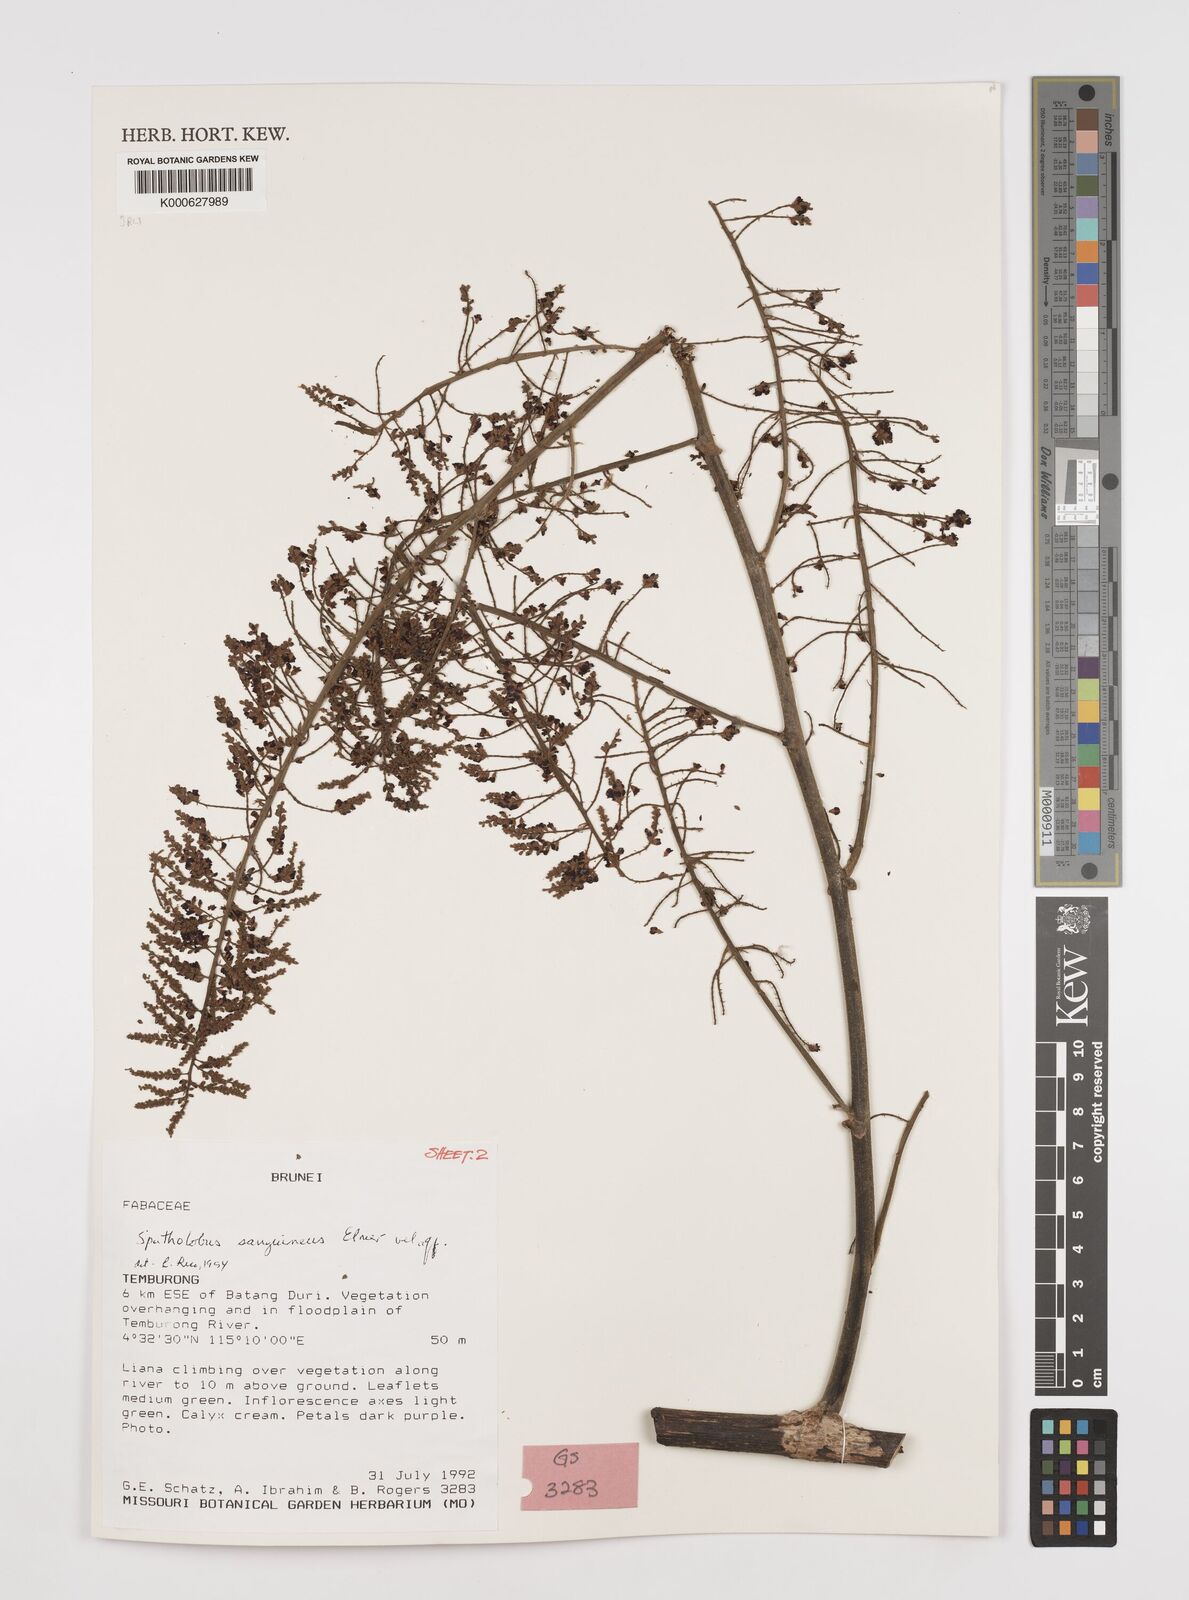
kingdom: Plantae
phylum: Tracheophyta
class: Magnoliopsida
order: Fabales
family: Fabaceae
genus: Spatholobus
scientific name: Spatholobus
